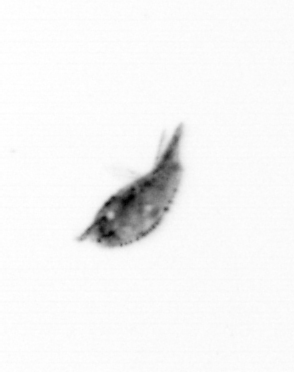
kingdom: Animalia
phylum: Arthropoda
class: Maxillopoda
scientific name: Maxillopoda
